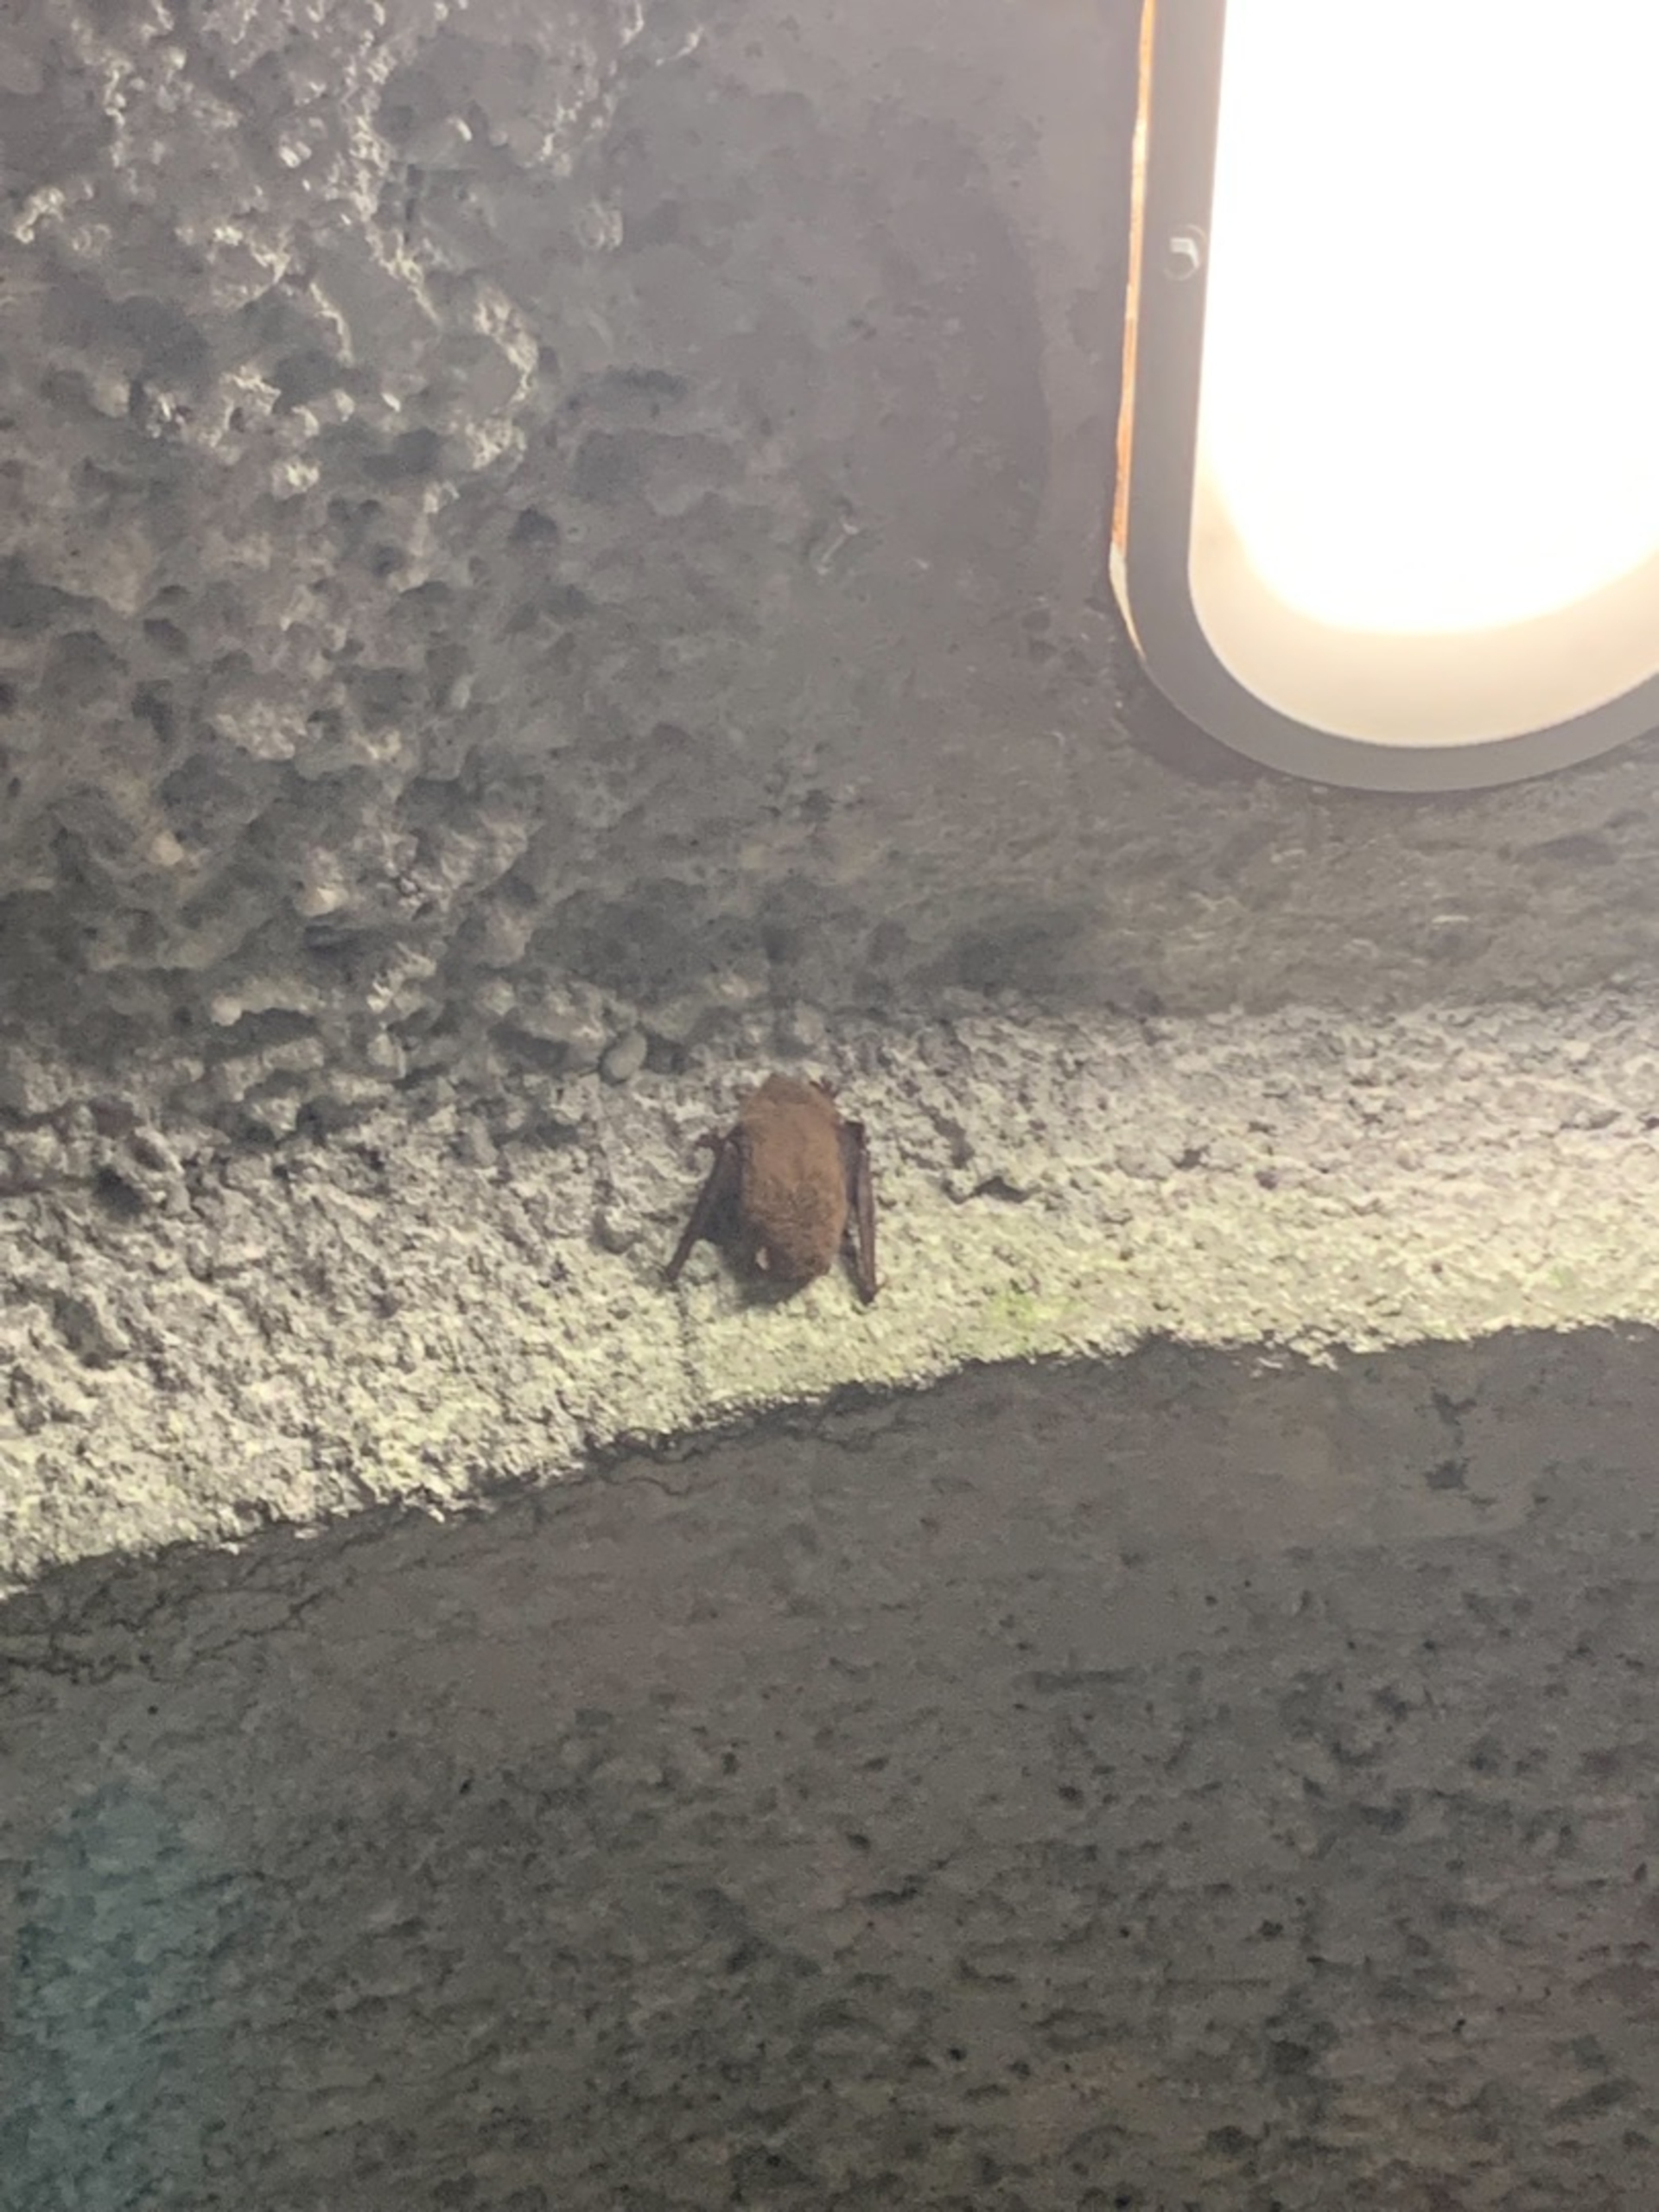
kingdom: Animalia
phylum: Chordata
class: Mammalia
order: Chiroptera
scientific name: Chiroptera
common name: Flagermus
